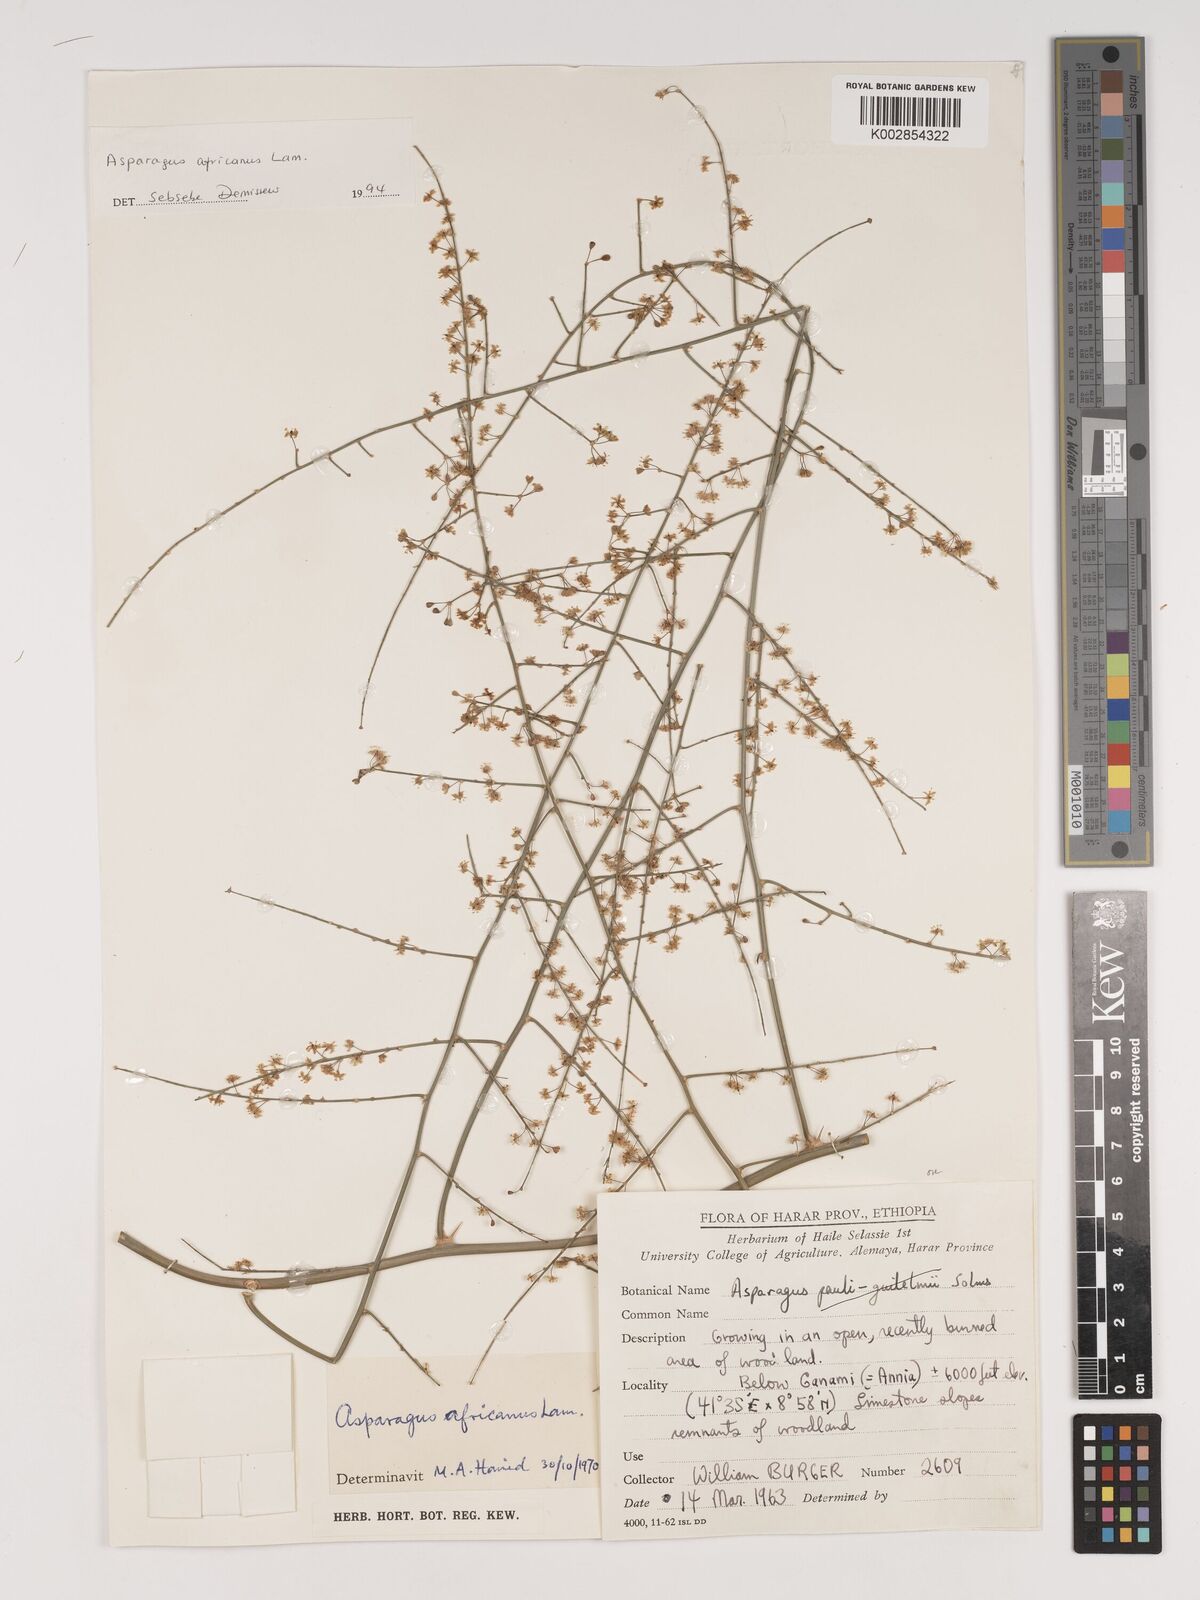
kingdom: Plantae
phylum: Tracheophyta
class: Liliopsida
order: Asparagales
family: Asparagaceae
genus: Asparagus
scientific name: Asparagus africanus
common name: Asparagus-fern
